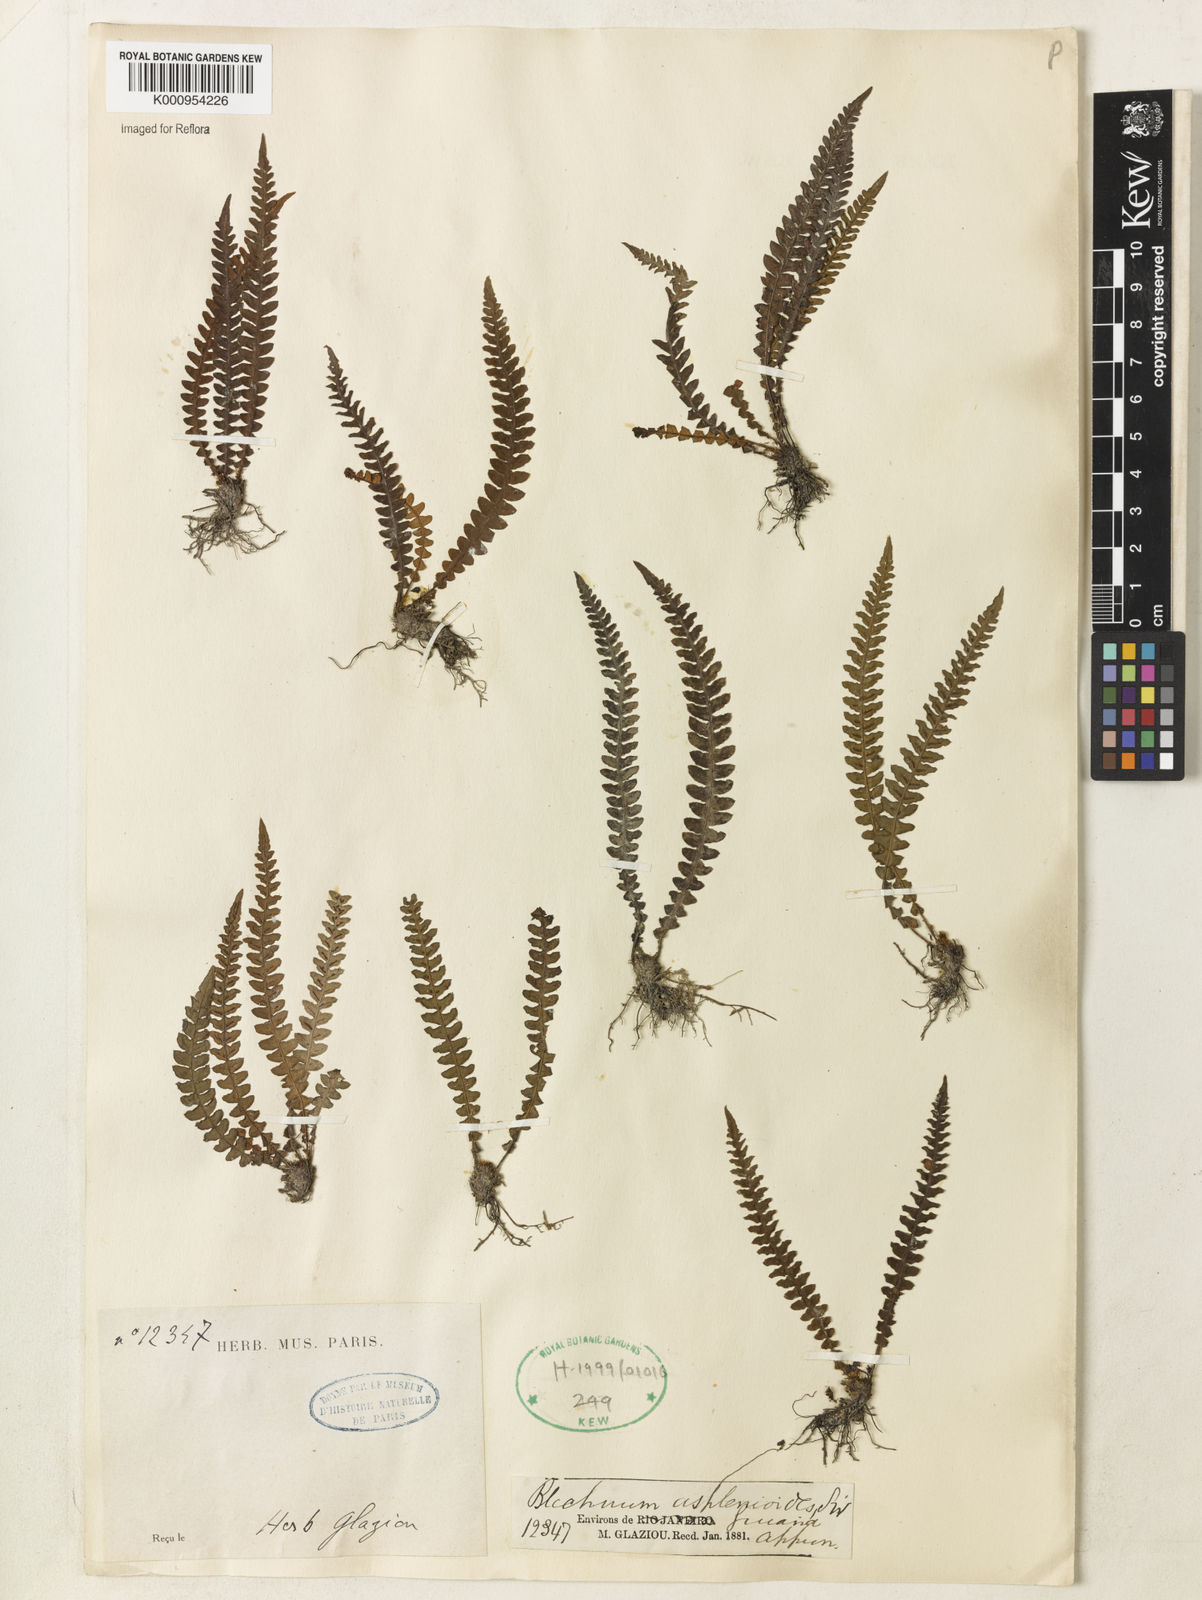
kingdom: Plantae
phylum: Tracheophyta
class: Polypodiopsida
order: Polypodiales
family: Blechnaceae
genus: Blechnum
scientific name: Blechnum asplenioides
